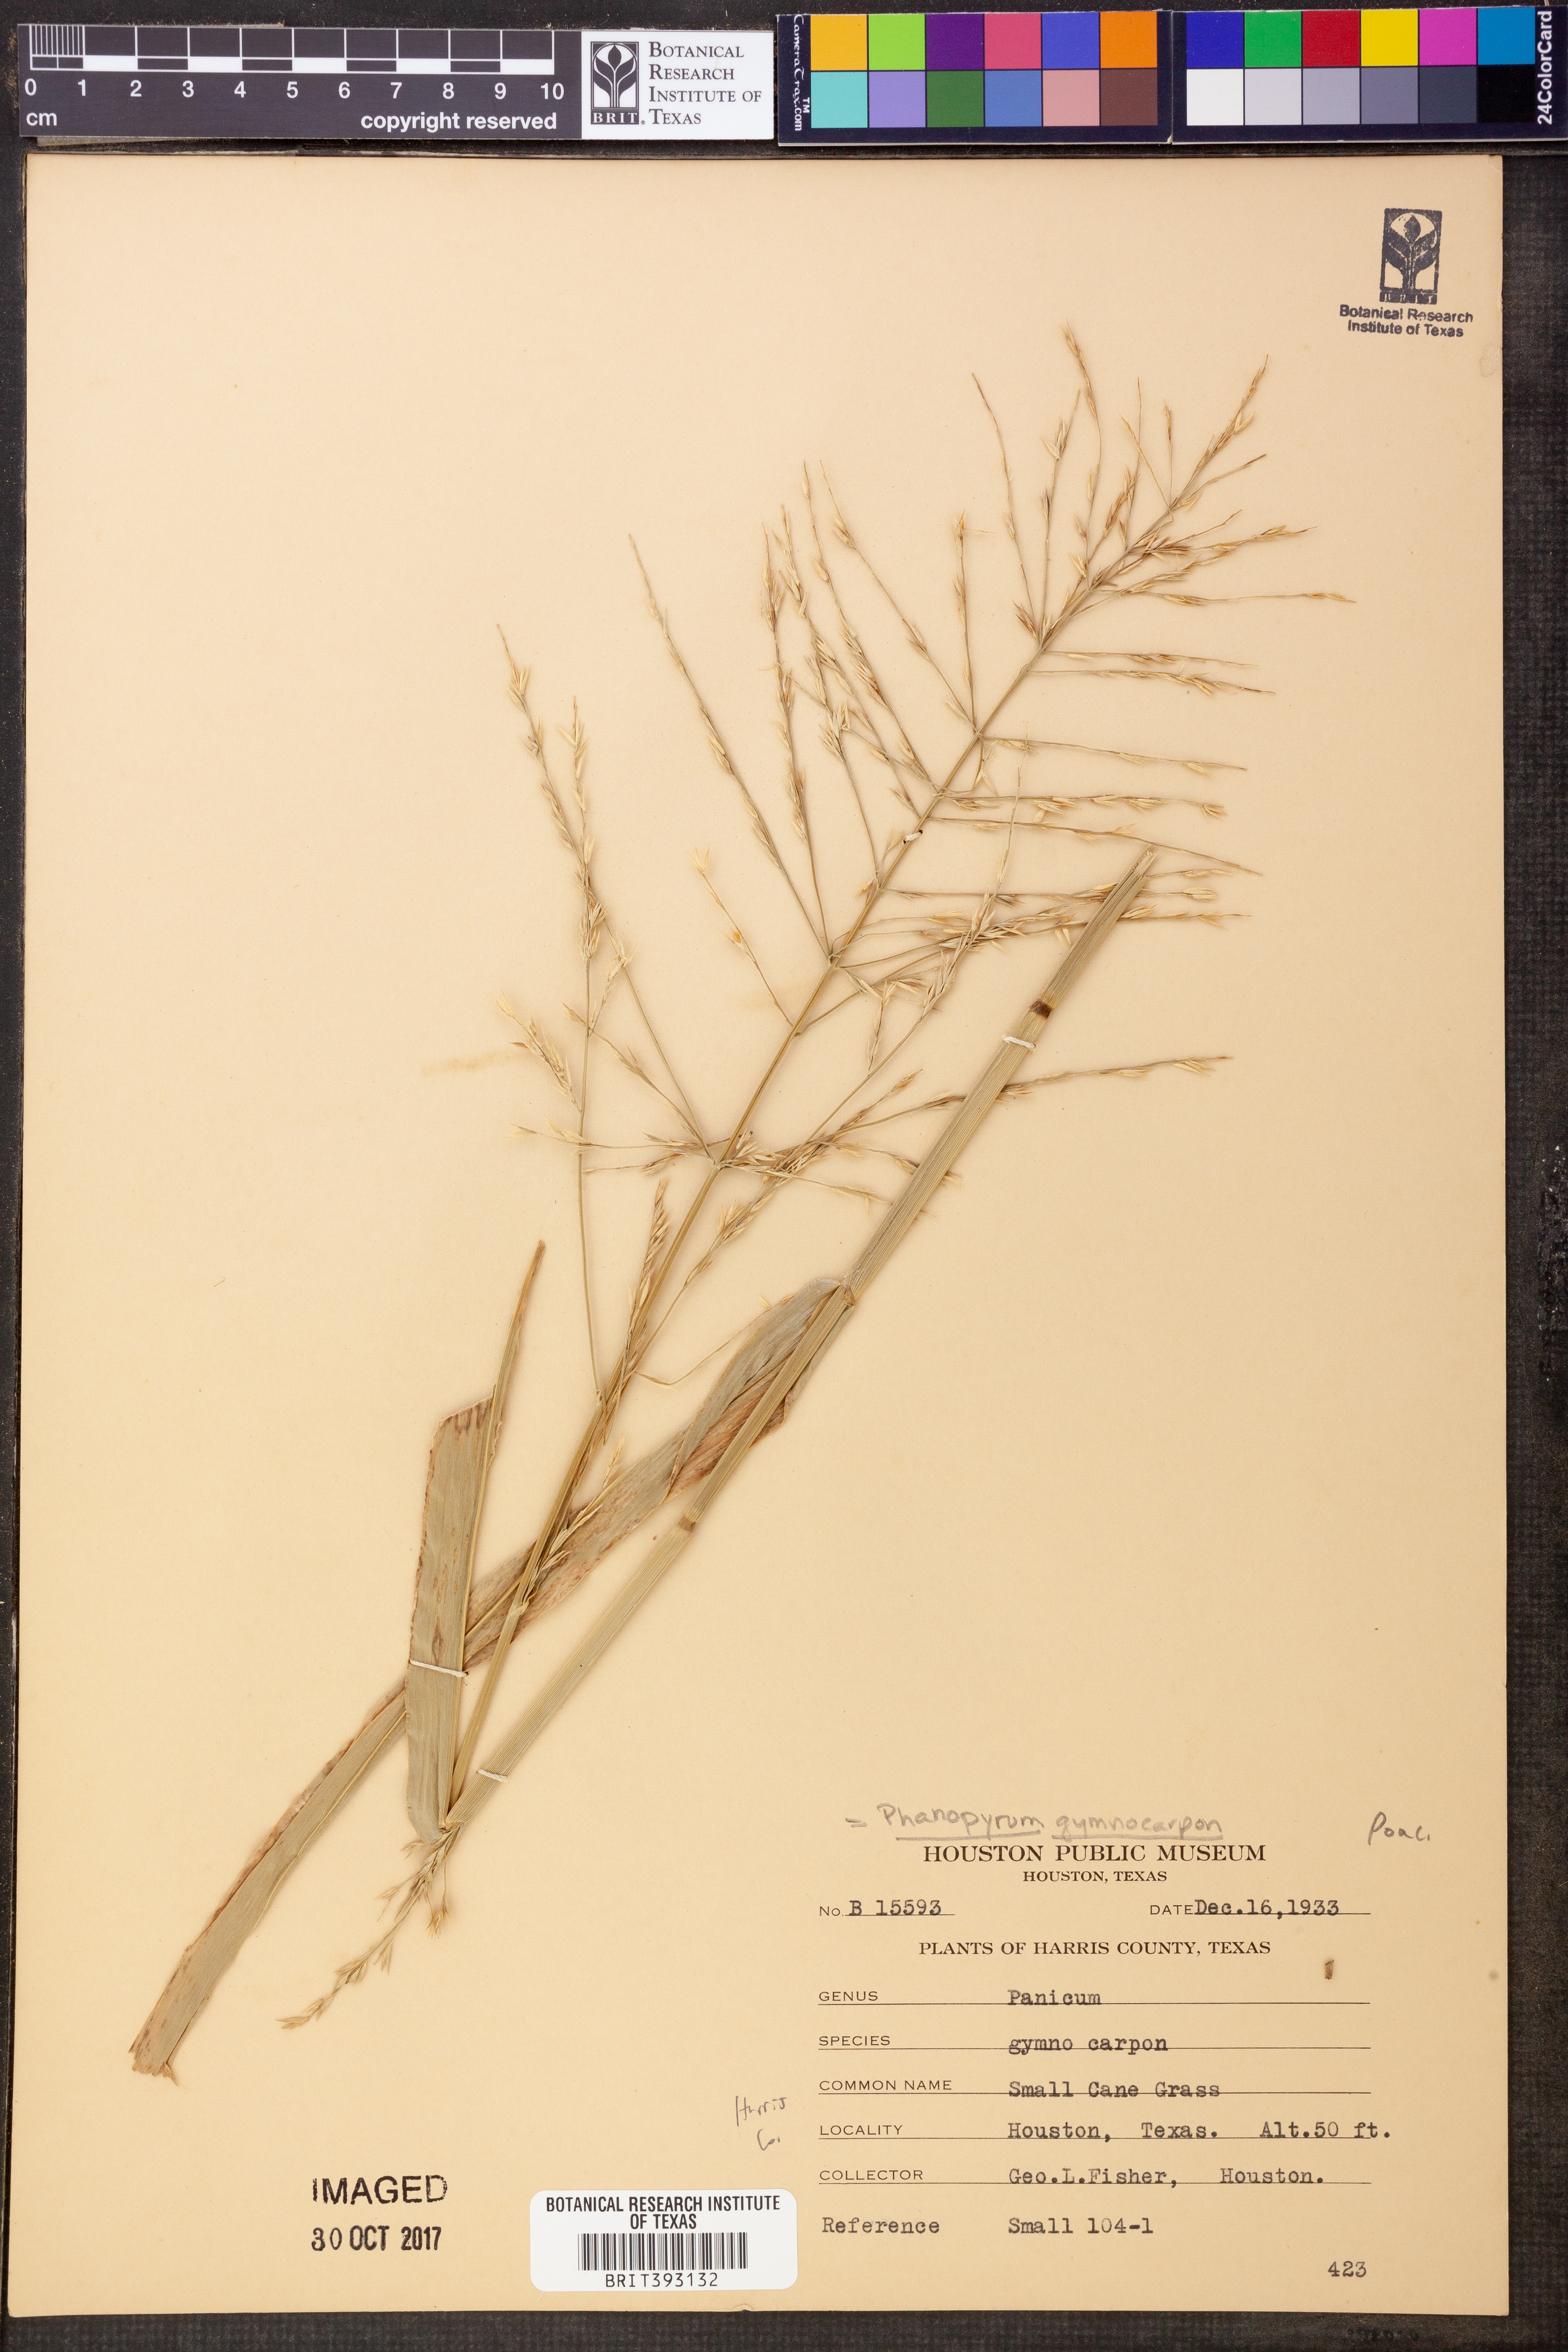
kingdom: Plantae
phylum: Tracheophyta
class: Liliopsida
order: Poales
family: Poaceae
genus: Panicum
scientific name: Panicum gymnocarpon
